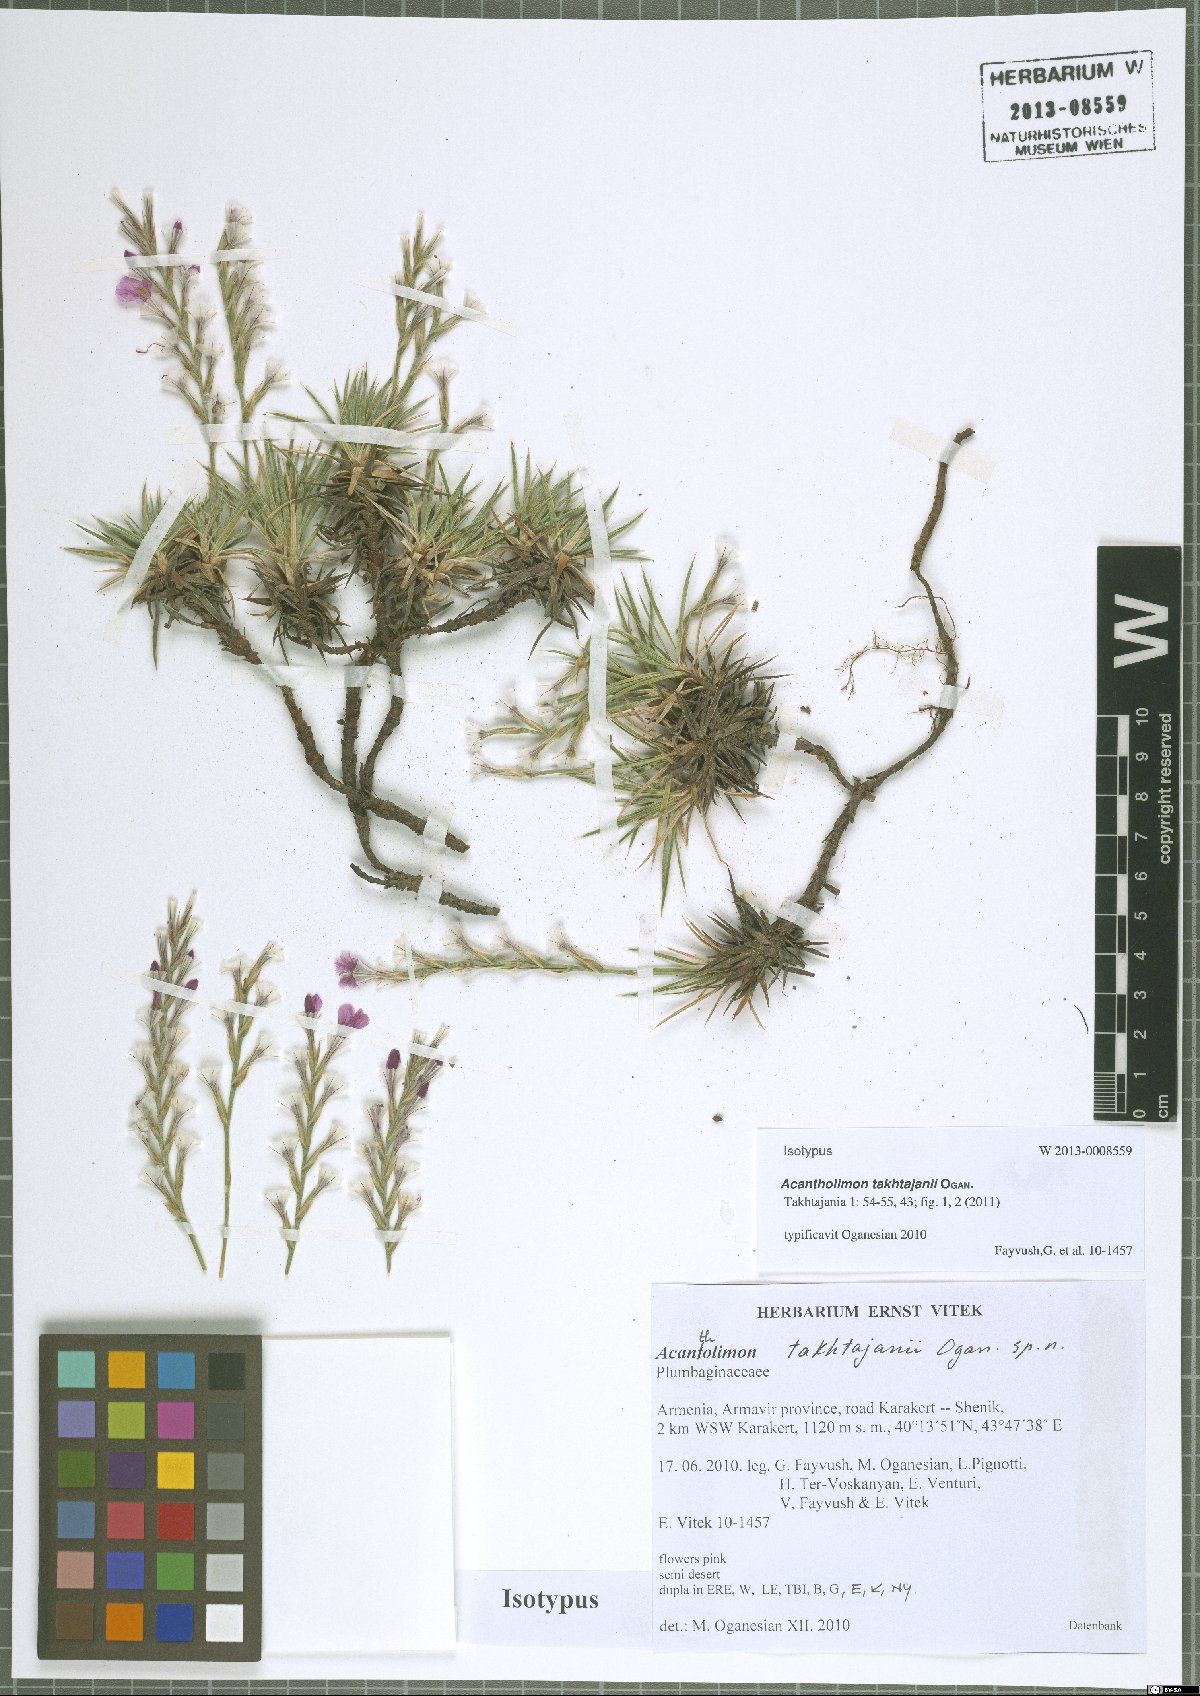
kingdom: Plantae
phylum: Tracheophyta
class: Magnoliopsida
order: Caryophyllales
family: Plumbaginaceae
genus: Acantholimon
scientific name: Acantholimon takhtajanii
